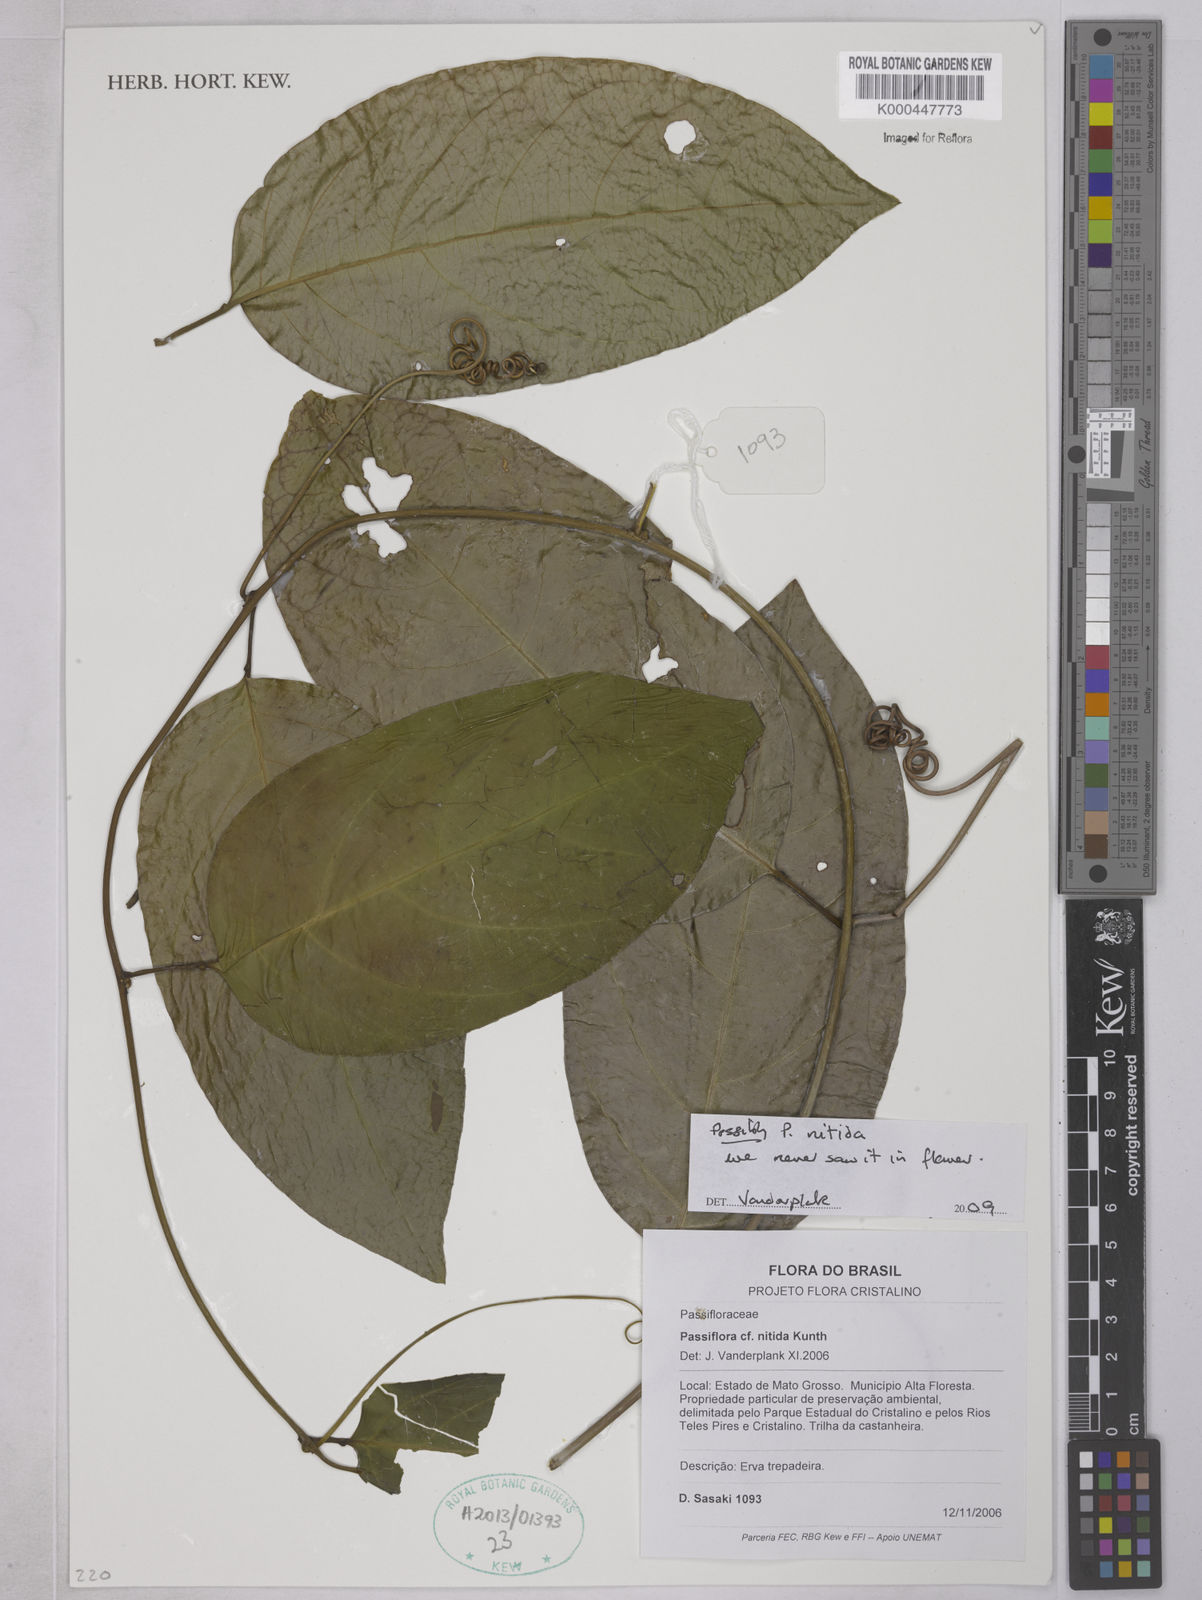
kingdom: Plantae
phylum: Tracheophyta
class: Magnoliopsida
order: Malpighiales
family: Passifloraceae
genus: Passiflora
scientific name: Passiflora nitida
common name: Bell-apple
